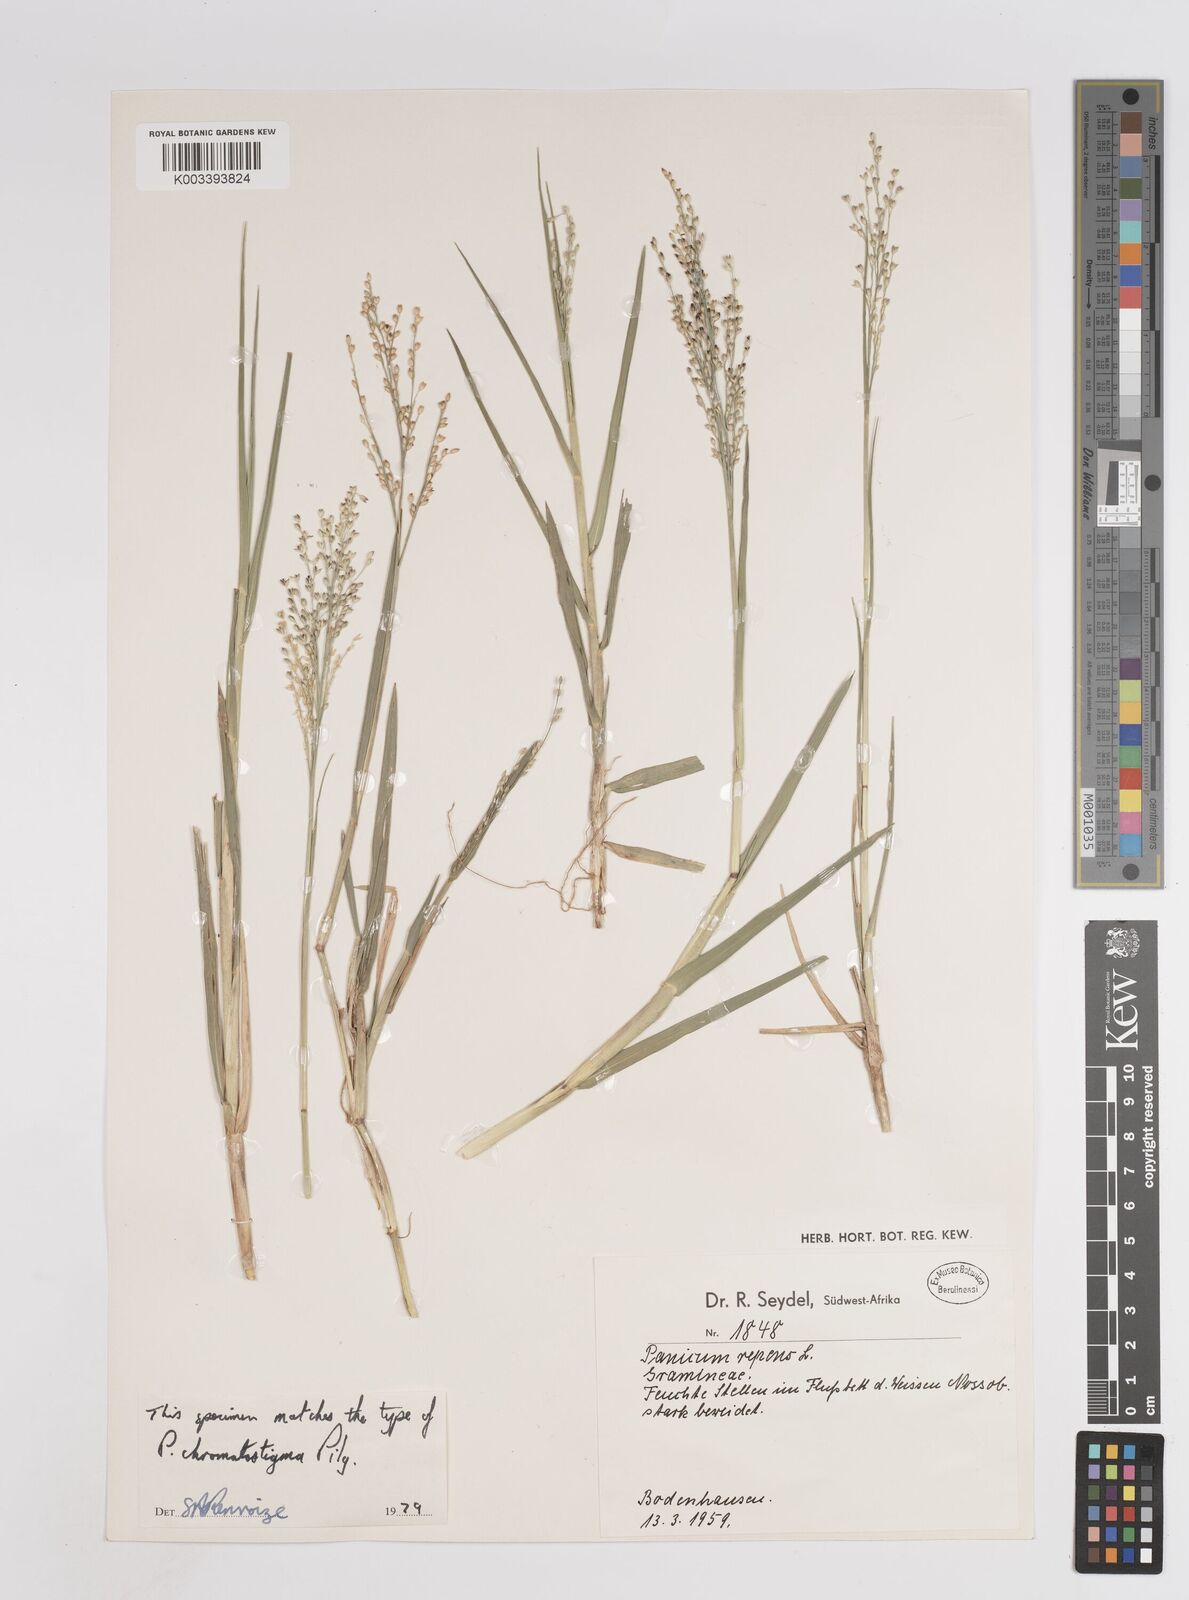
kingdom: Plantae
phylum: Tracheophyta
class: Liliopsida
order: Poales
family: Poaceae
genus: Panicum
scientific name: Panicum repens
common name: Torpedo grass
